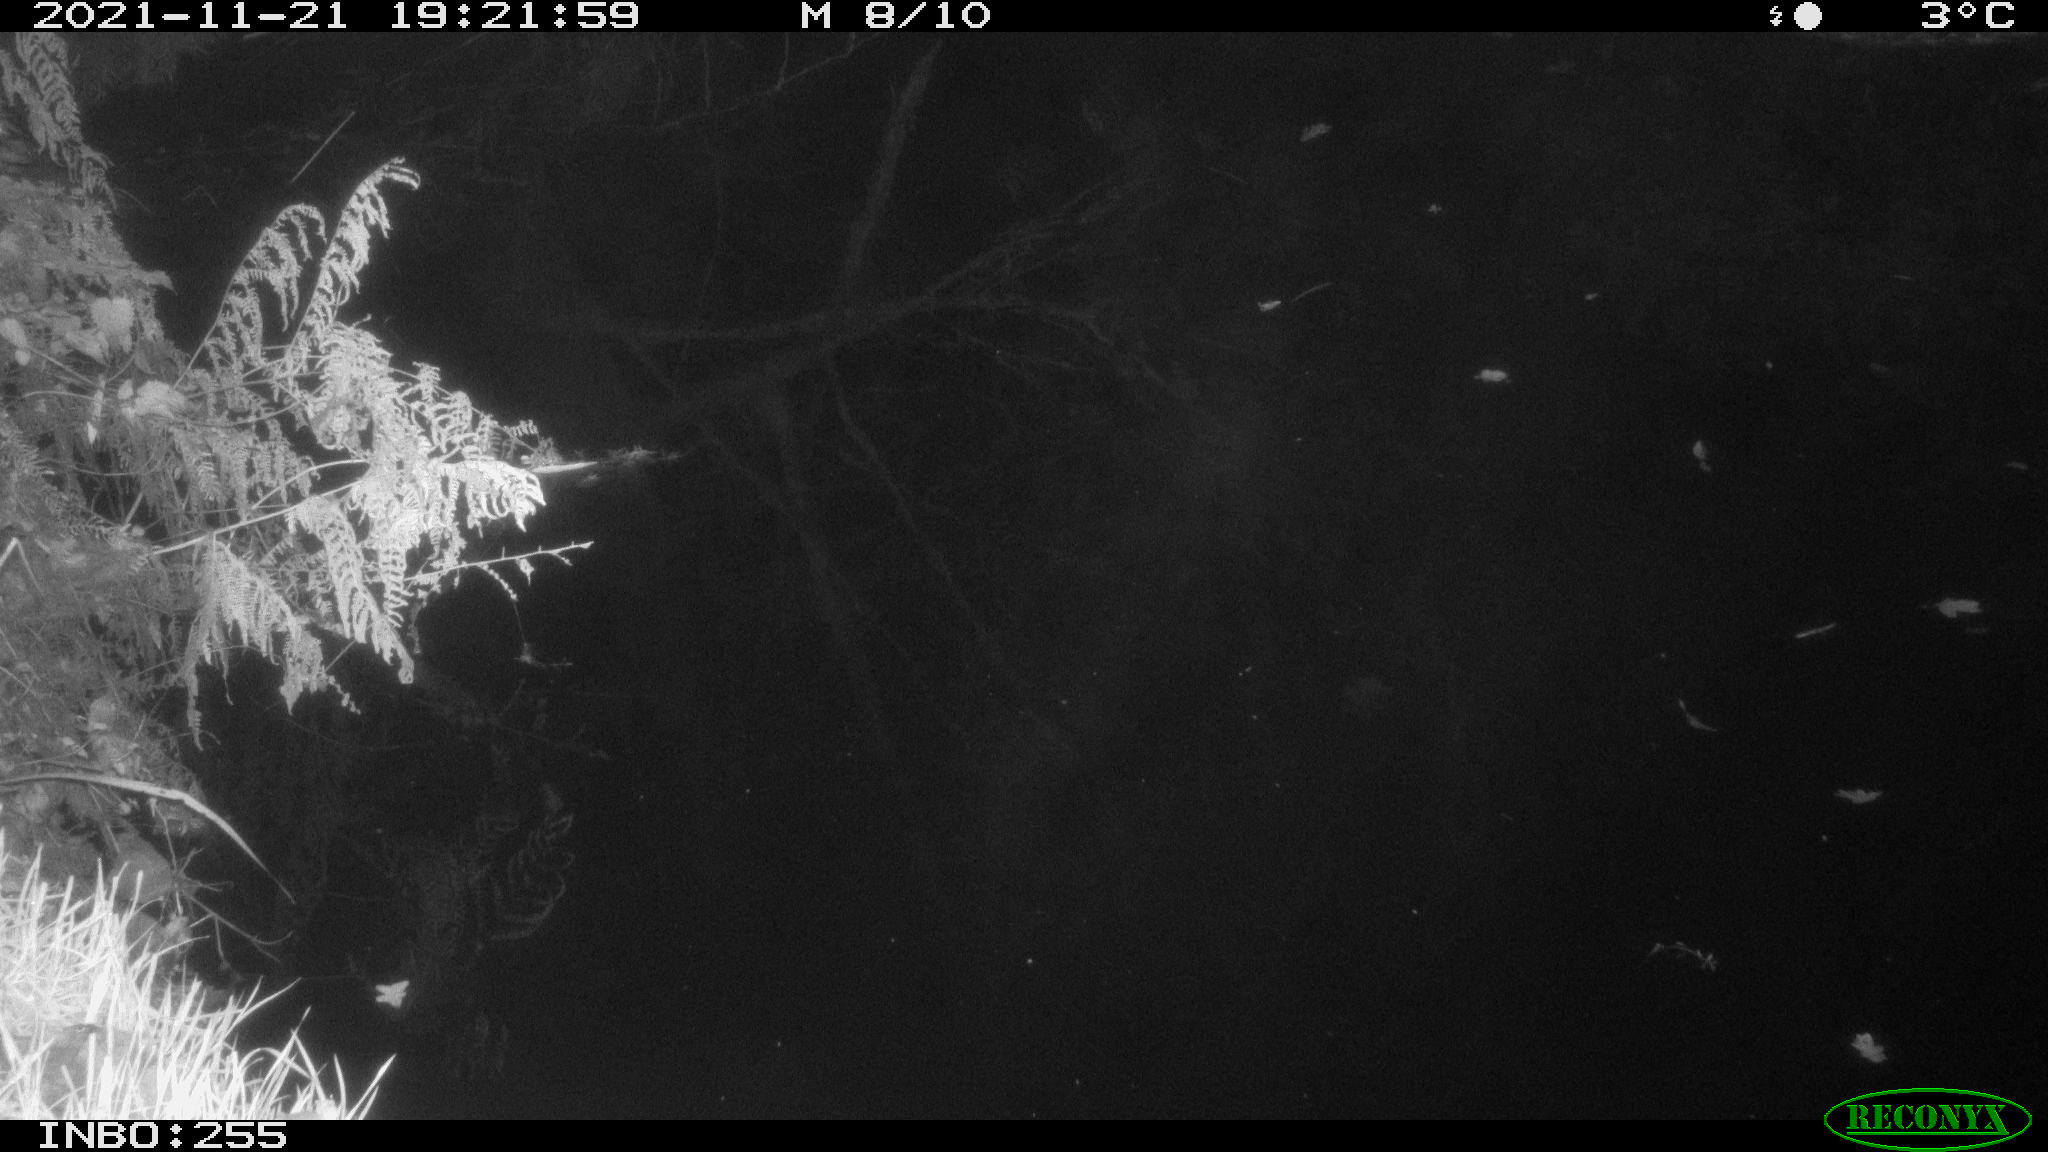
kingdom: Animalia
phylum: Chordata
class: Mammalia
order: Rodentia
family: Muridae
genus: Rattus
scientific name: Rattus norvegicus
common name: Brown rat
